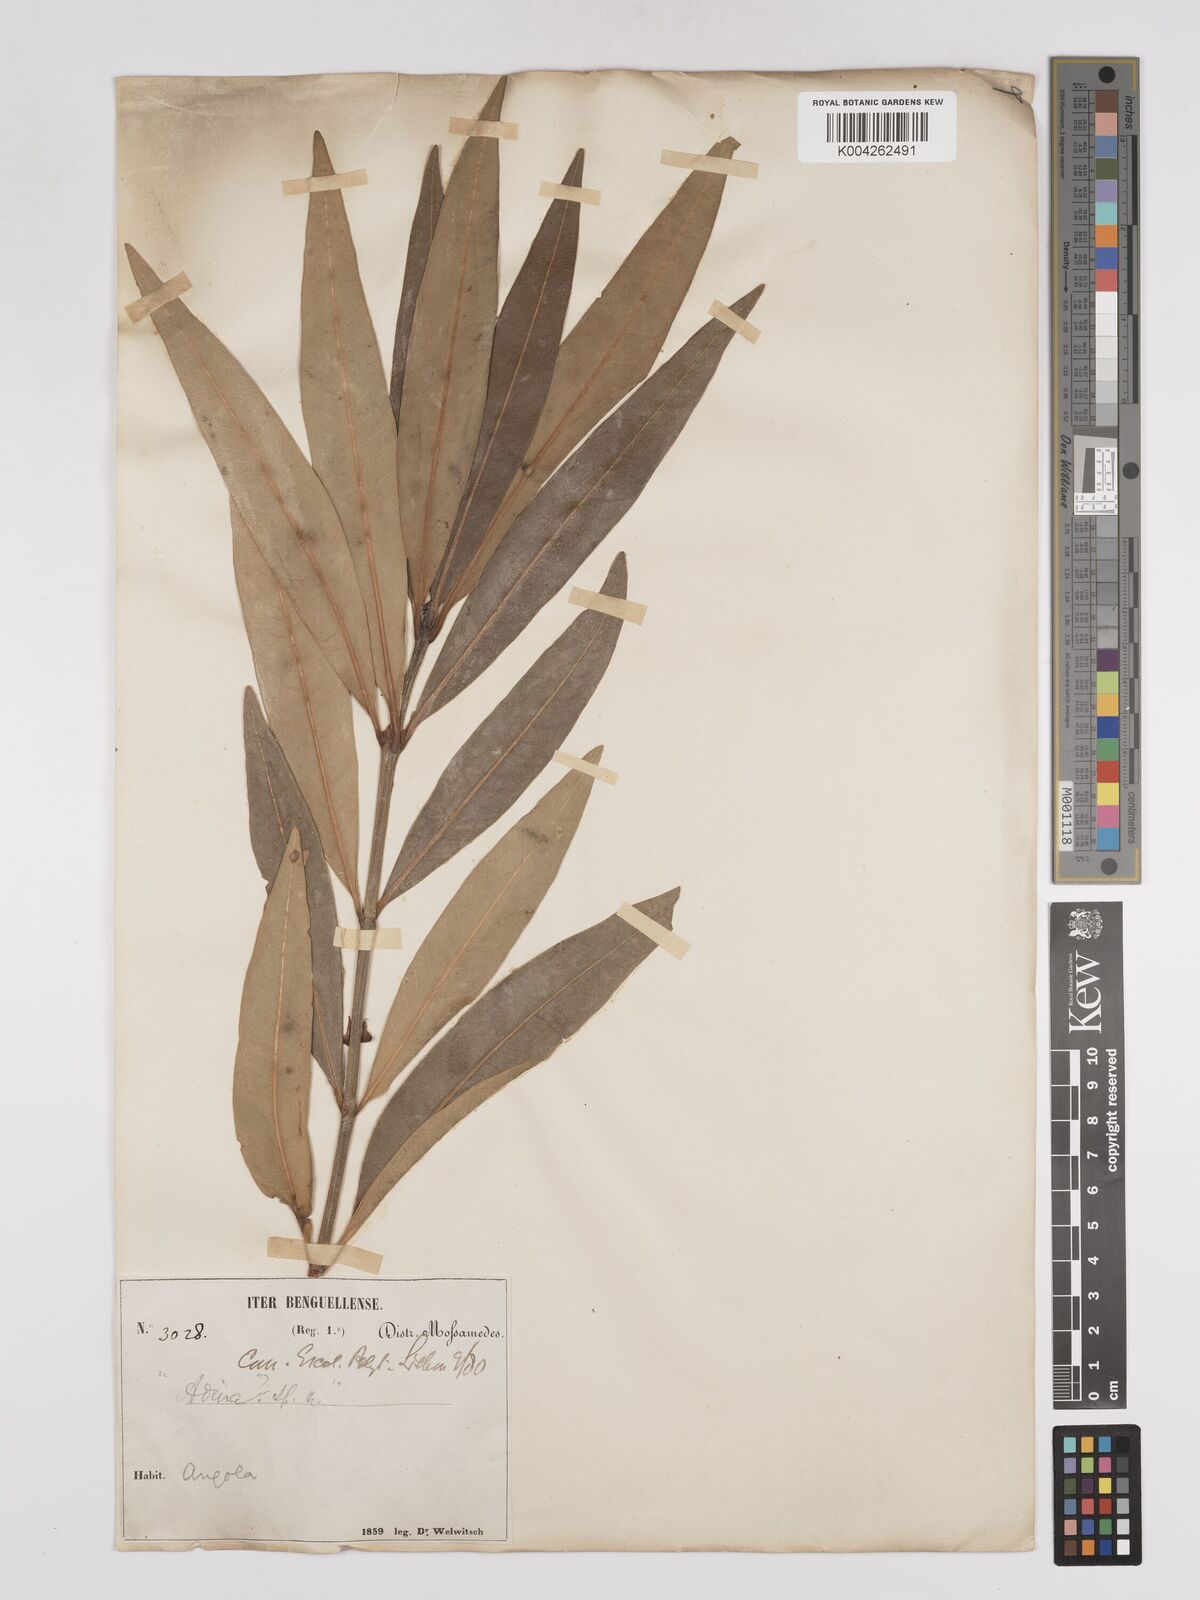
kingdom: Plantae
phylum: Tracheophyta
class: Magnoliopsida
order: Gentianales
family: Rubiaceae
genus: Breonadia
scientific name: Breonadia salicina
